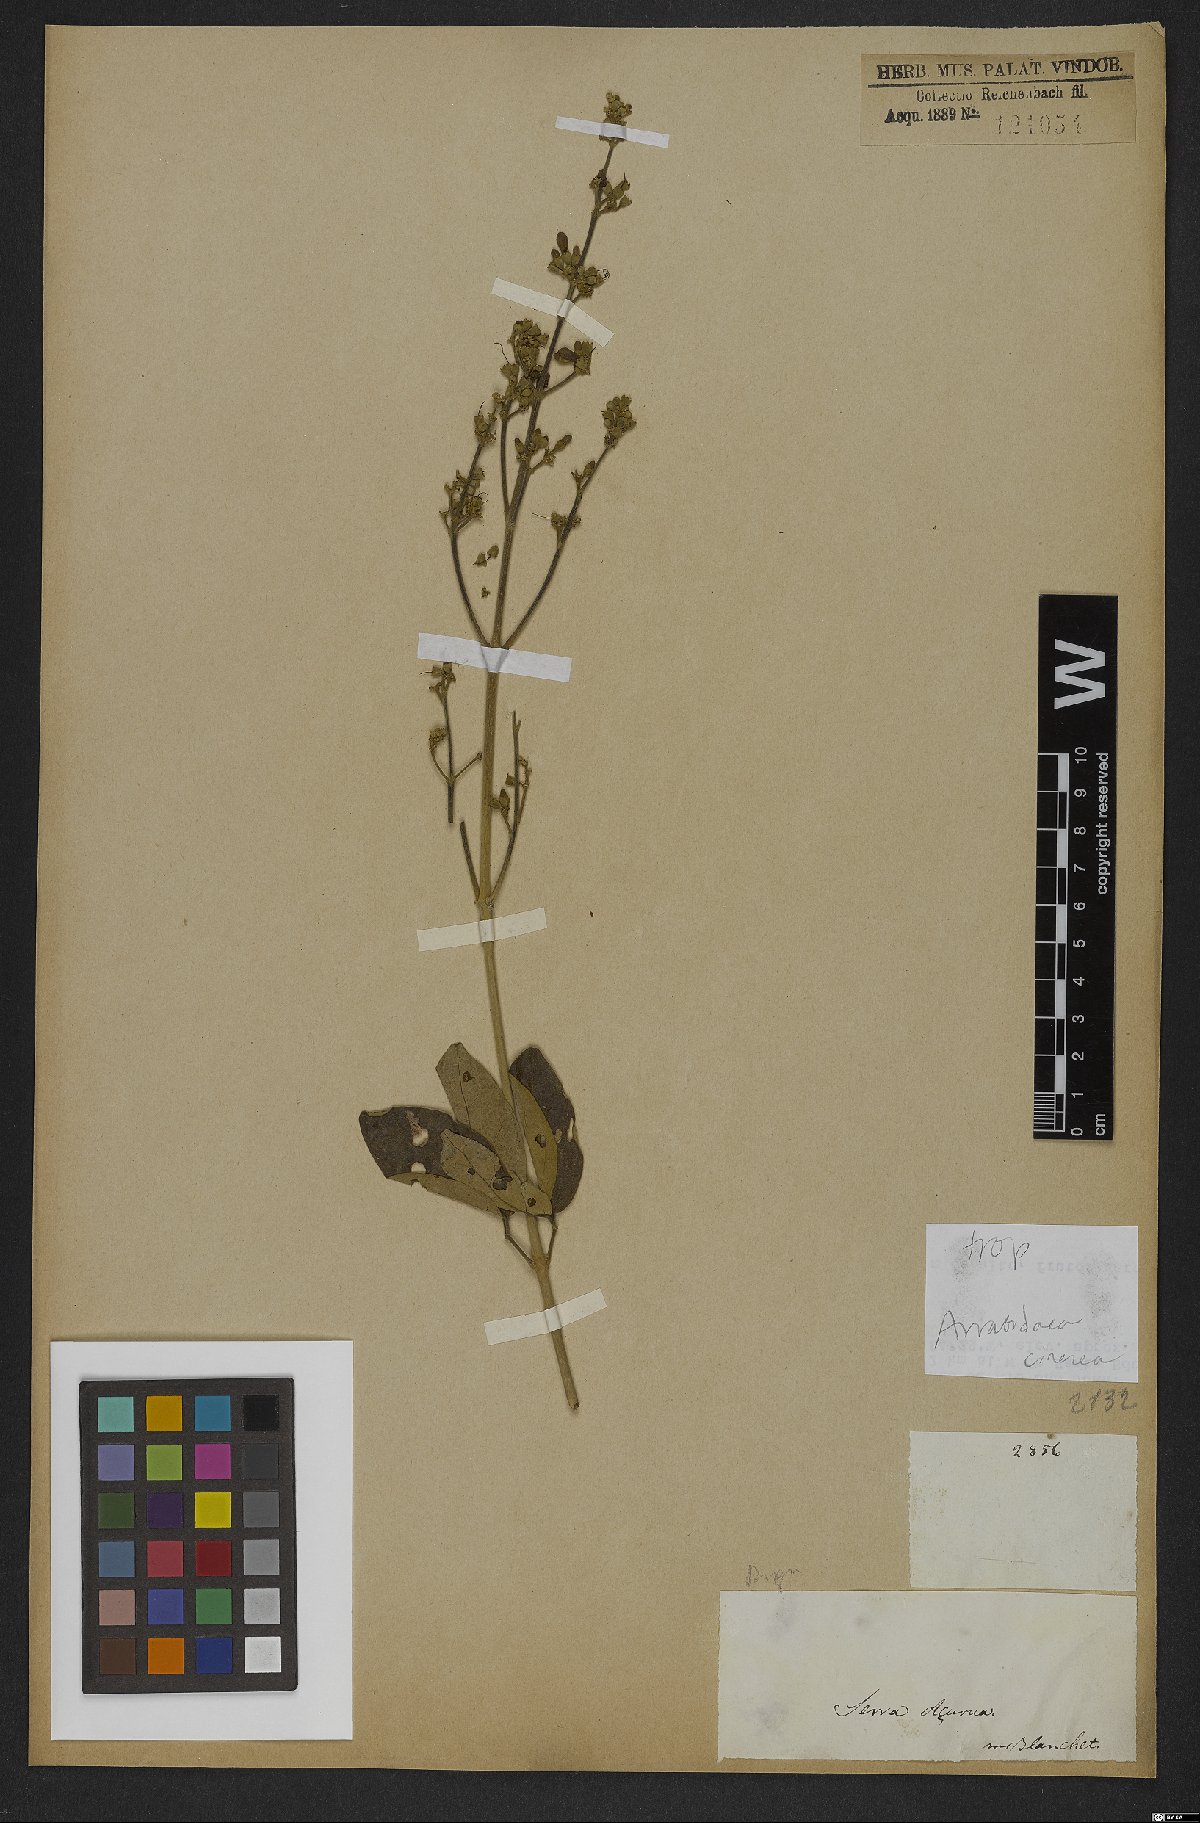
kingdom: Plantae
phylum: Tracheophyta
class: Magnoliopsida
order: Lamiales
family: Bignoniaceae
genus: Fridericia
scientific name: Fridericia cinerea
